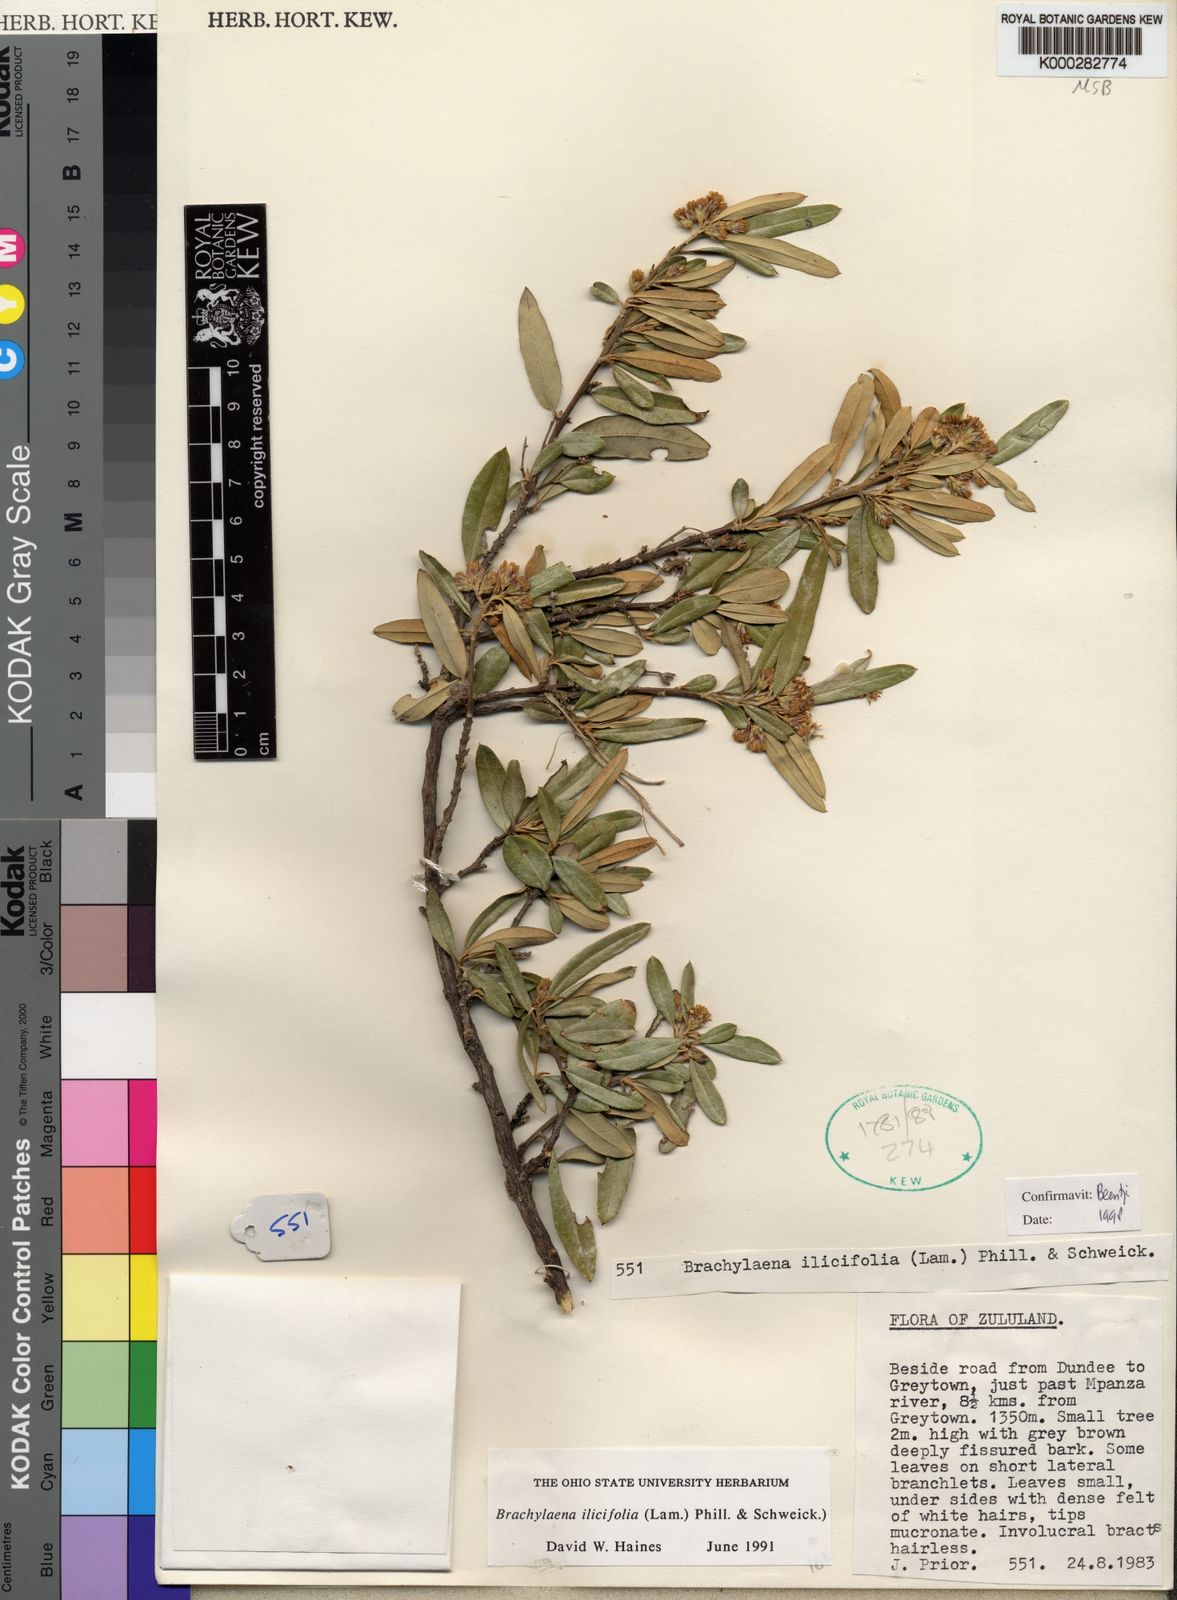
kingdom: Plantae
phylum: Tracheophyta
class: Magnoliopsida
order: Asterales
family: Asteraceae
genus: Brachylaena
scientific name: Brachylaena ilicifolia
